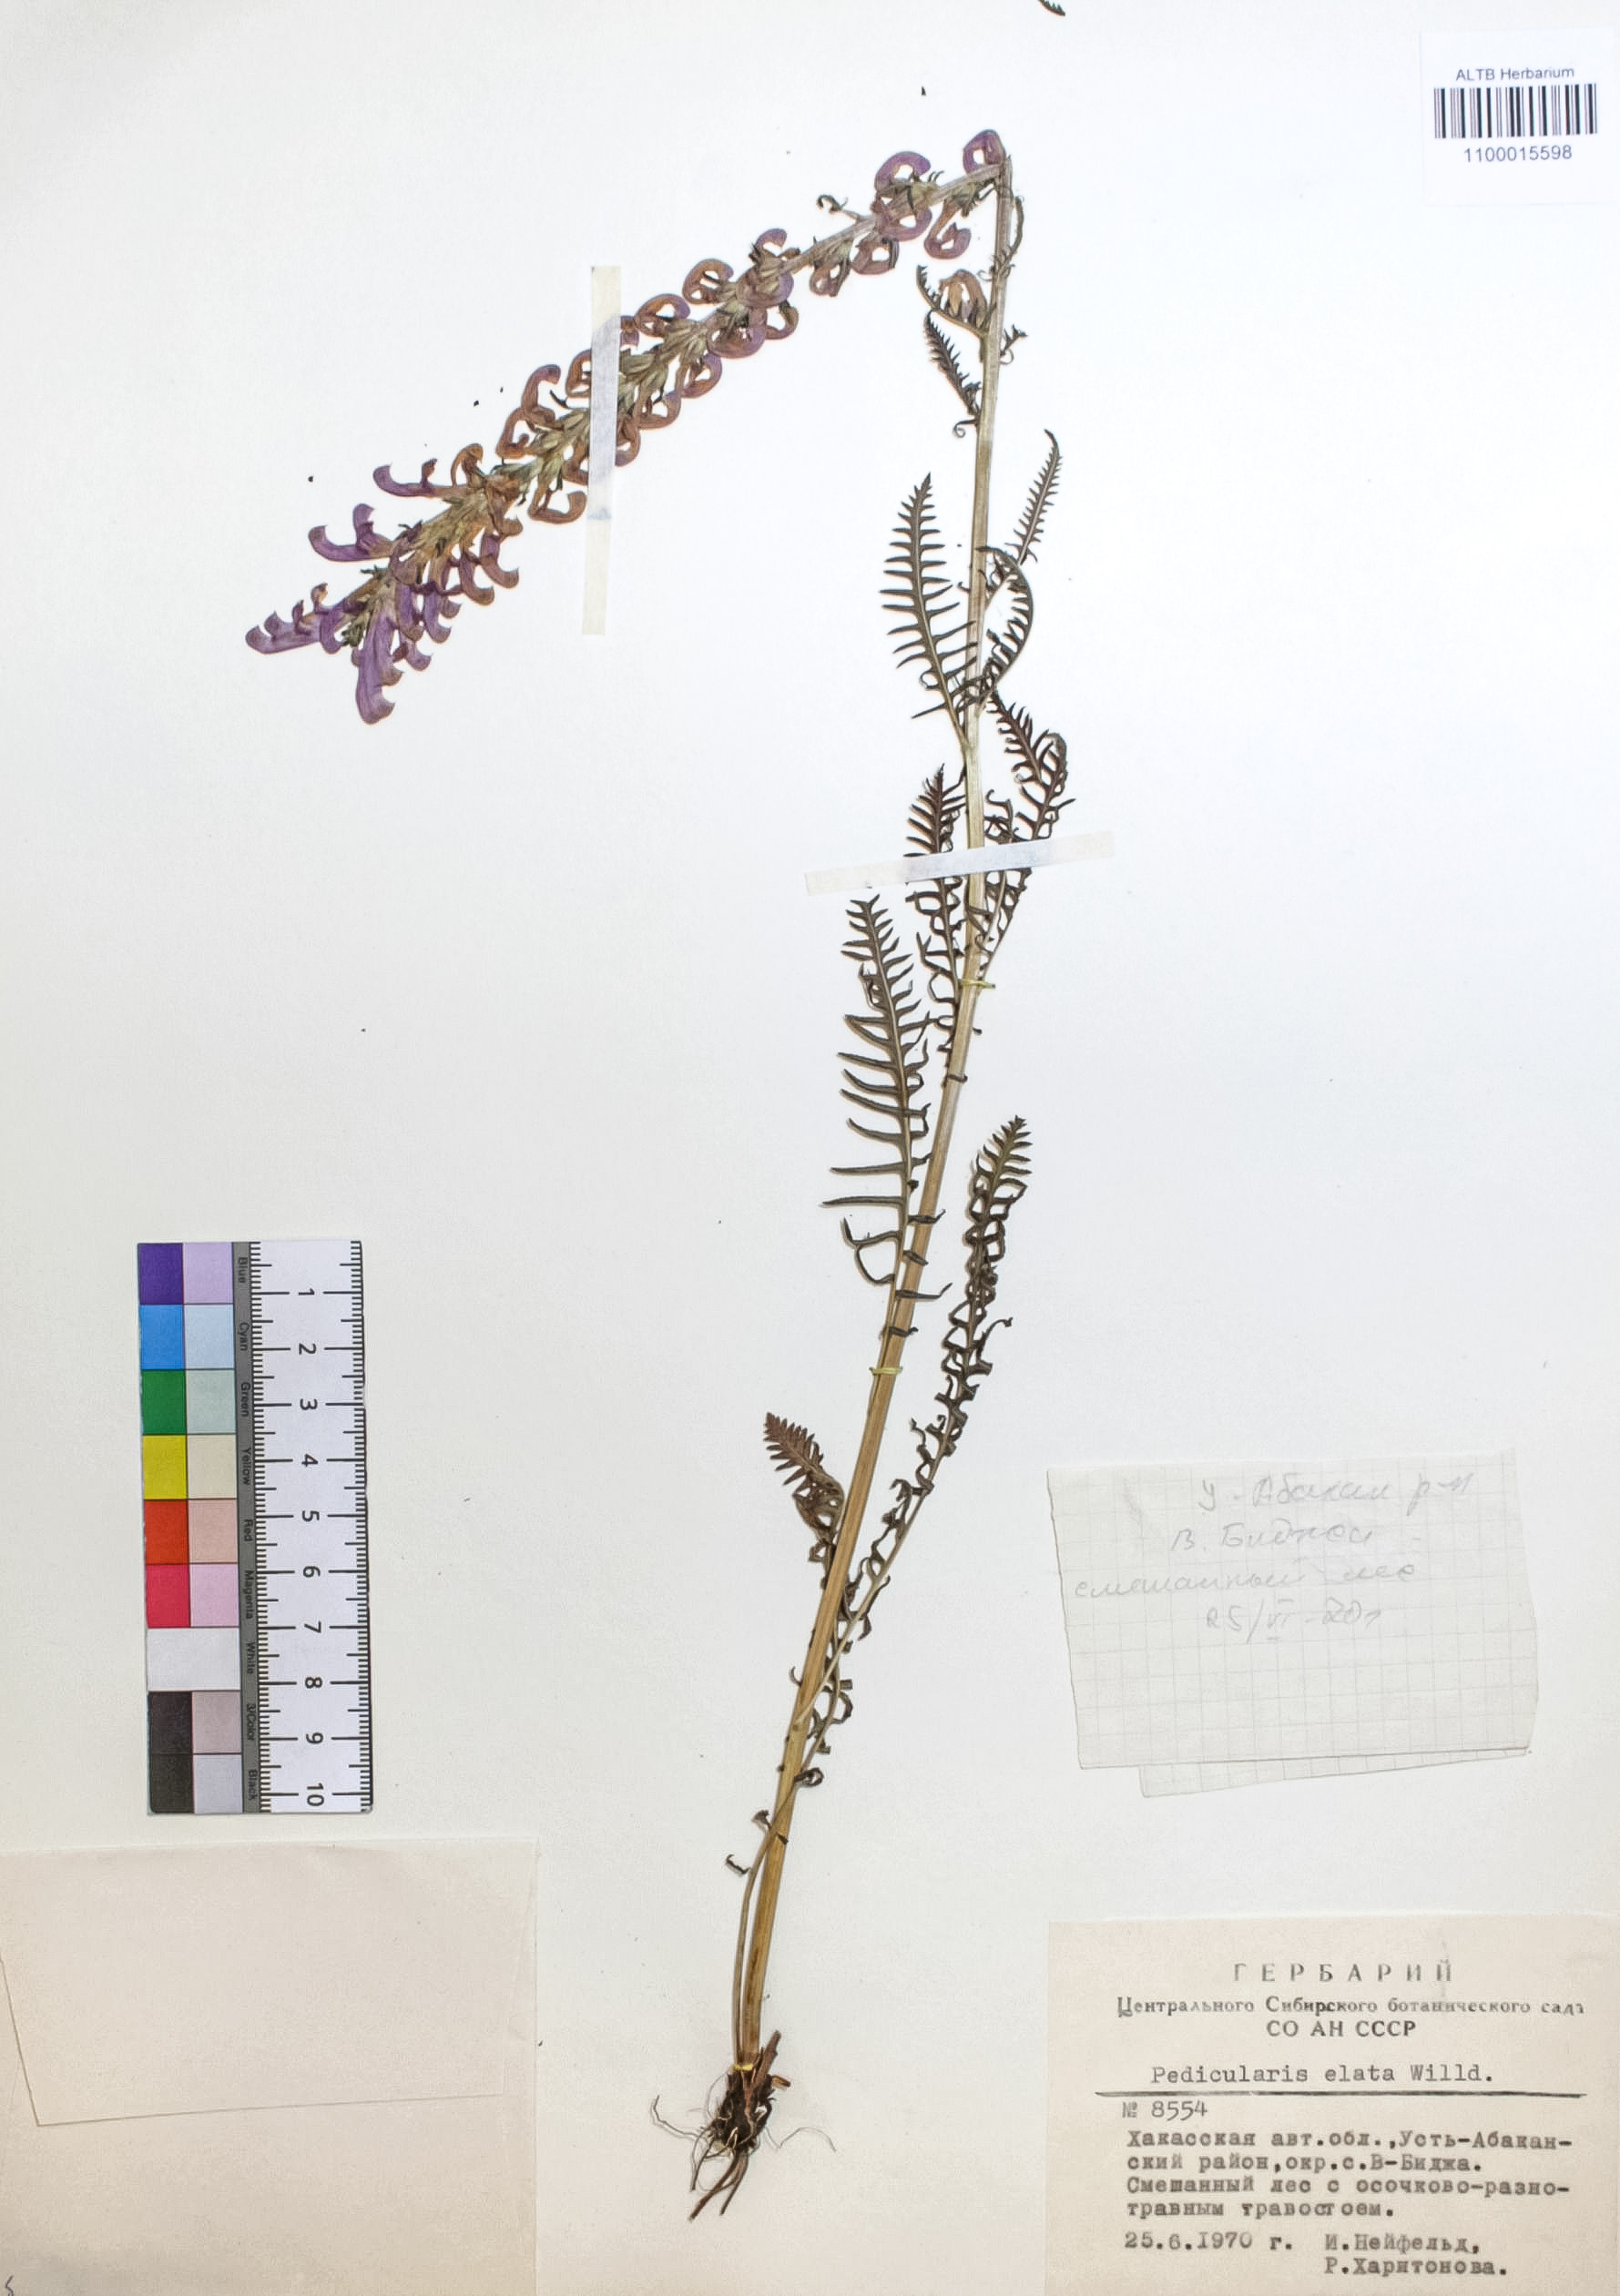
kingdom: Plantae
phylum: Tracheophyta
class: Magnoliopsida
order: Lamiales
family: Orobanchaceae
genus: Pedicularis
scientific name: Pedicularis elata
